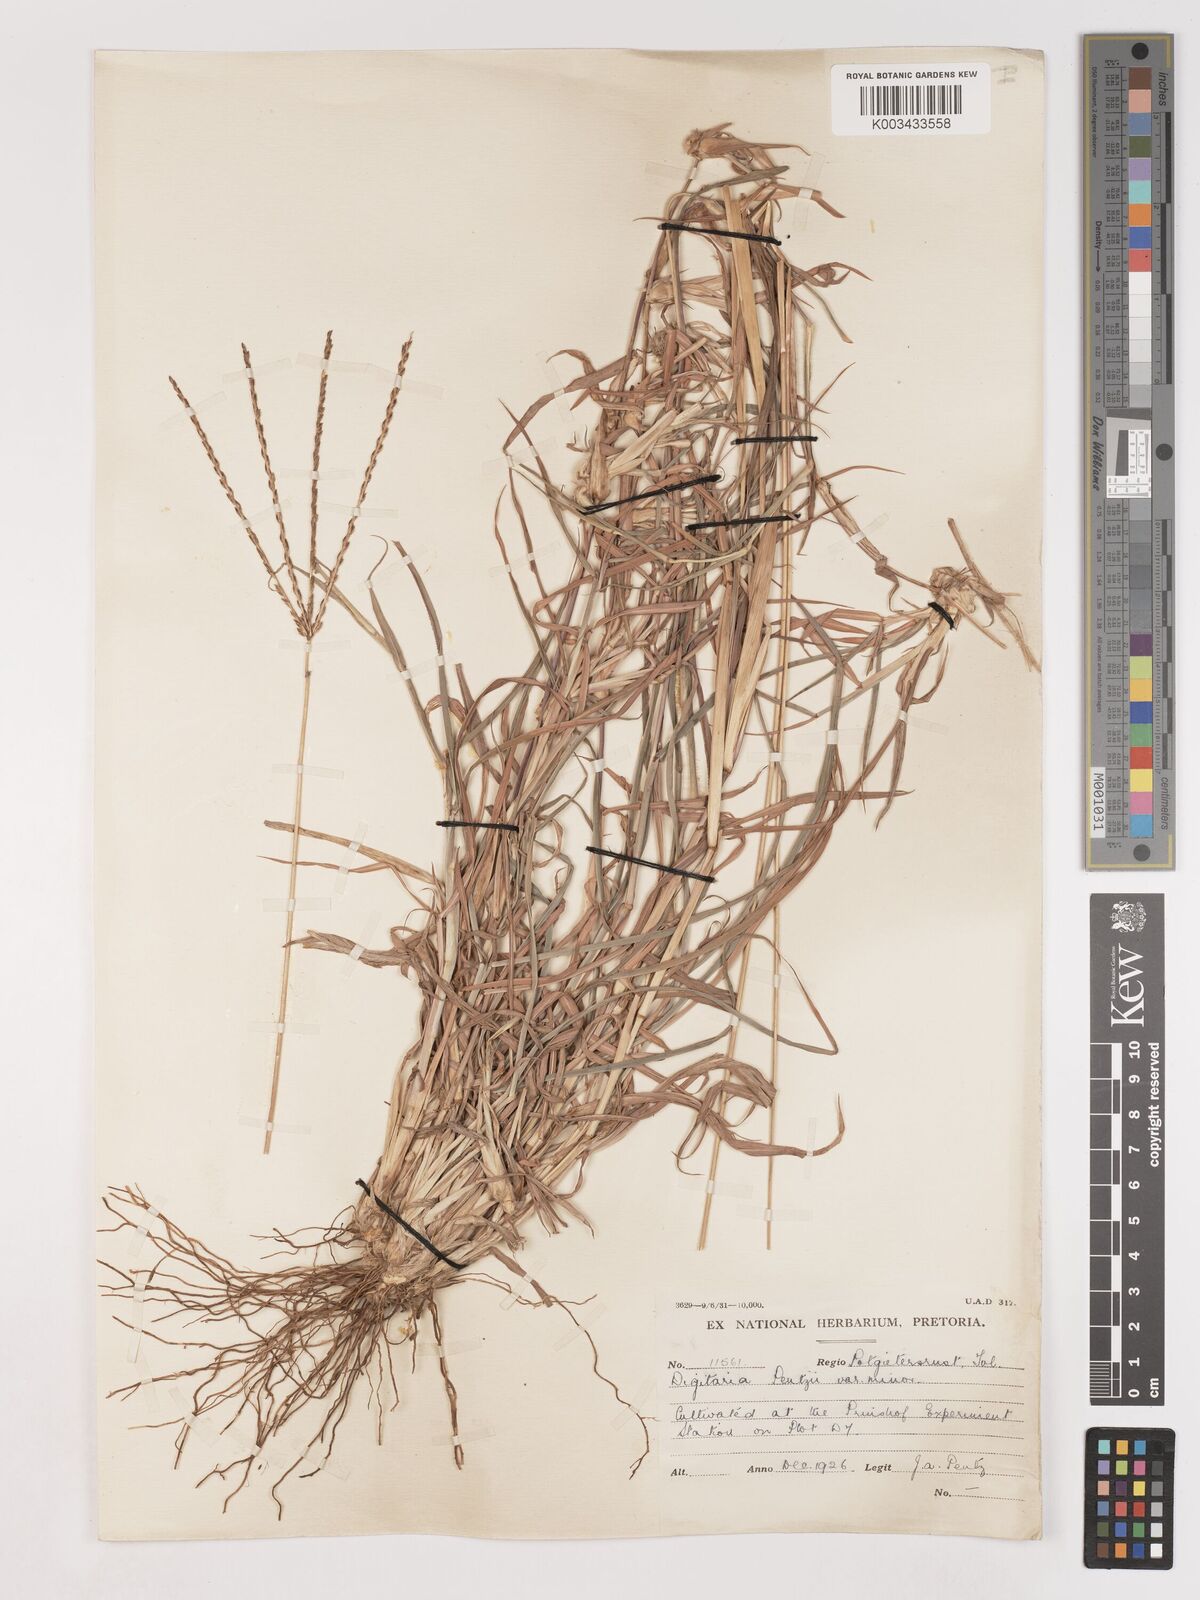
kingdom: Plantae
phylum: Tracheophyta
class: Liliopsida
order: Poales
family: Poaceae
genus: Digitaria
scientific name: Digitaria eriantha
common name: Digitgrass
